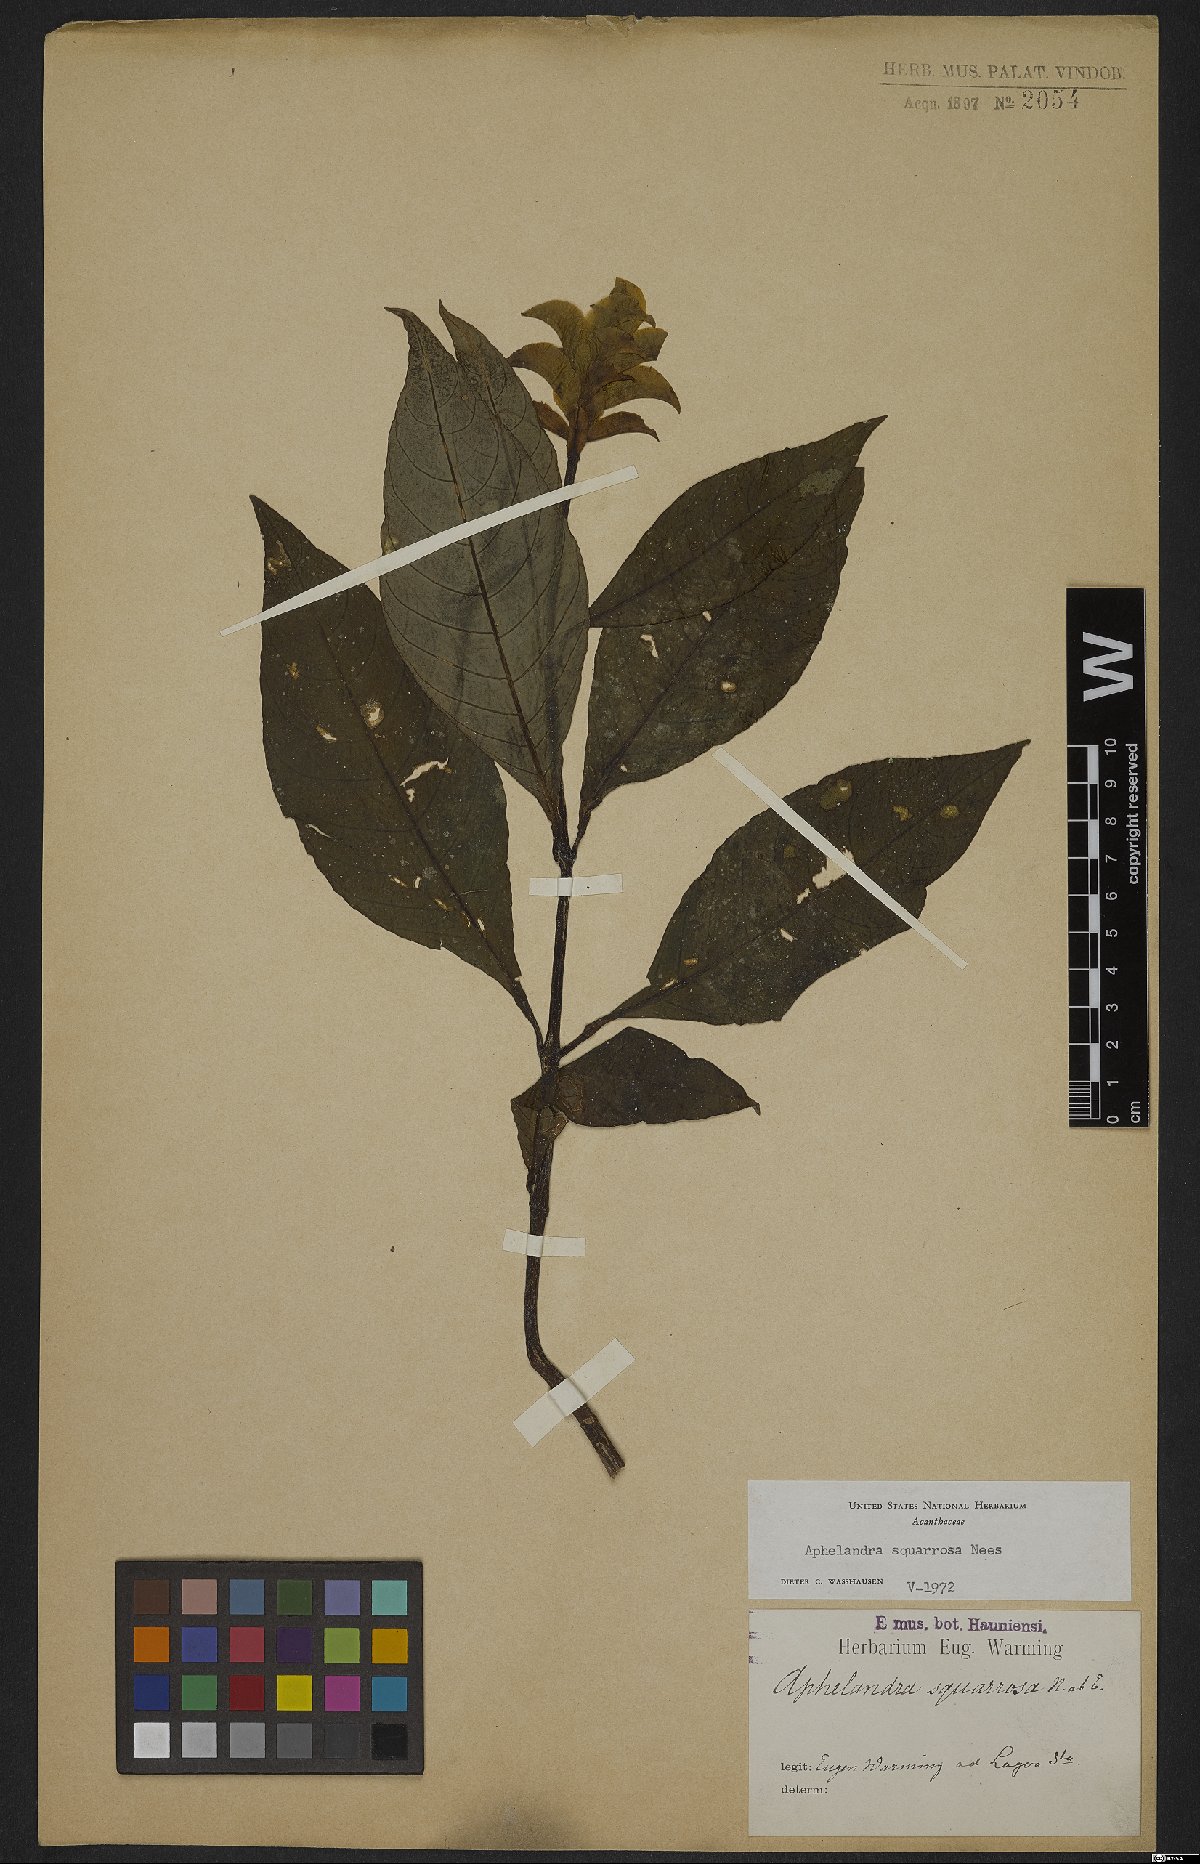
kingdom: Plantae
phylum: Tracheophyta
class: Magnoliopsida
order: Lamiales
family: Acanthaceae
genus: Aphelandra
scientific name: Aphelandra squarrosa
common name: Saffron spike
